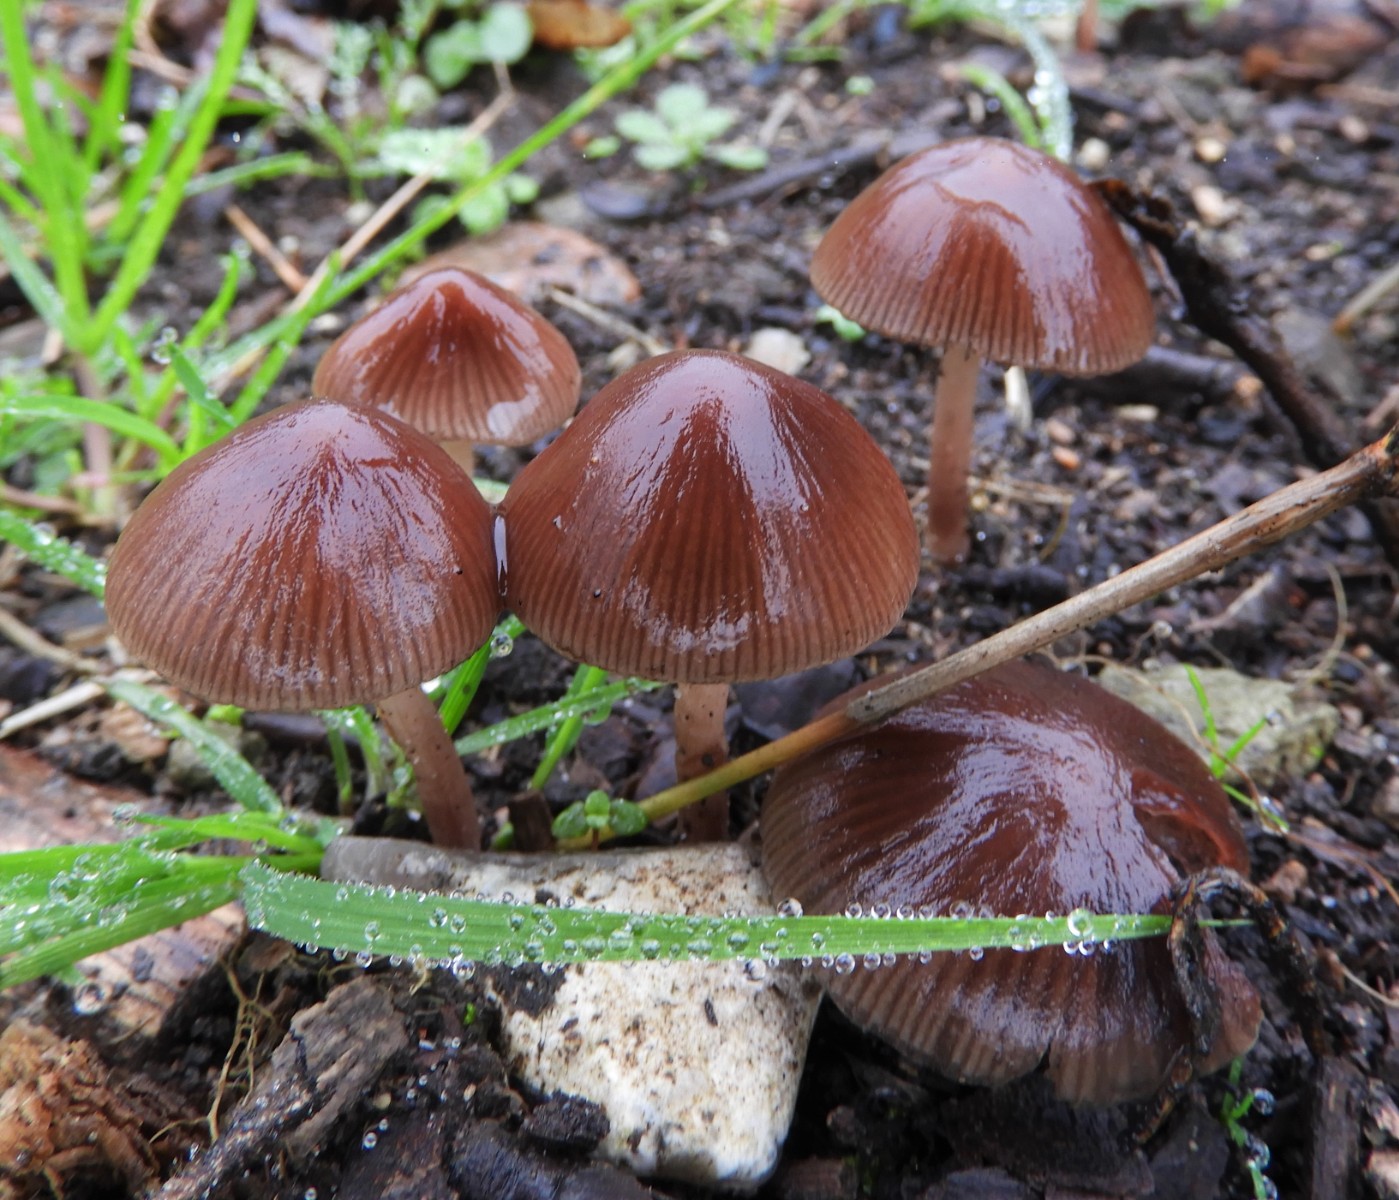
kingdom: Fungi
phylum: Basidiomycota
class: Agaricomycetes
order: Agaricales
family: Psathyrellaceae
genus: Psathyrella
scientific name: Psathyrella bipellis
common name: vinrød mørkhat
